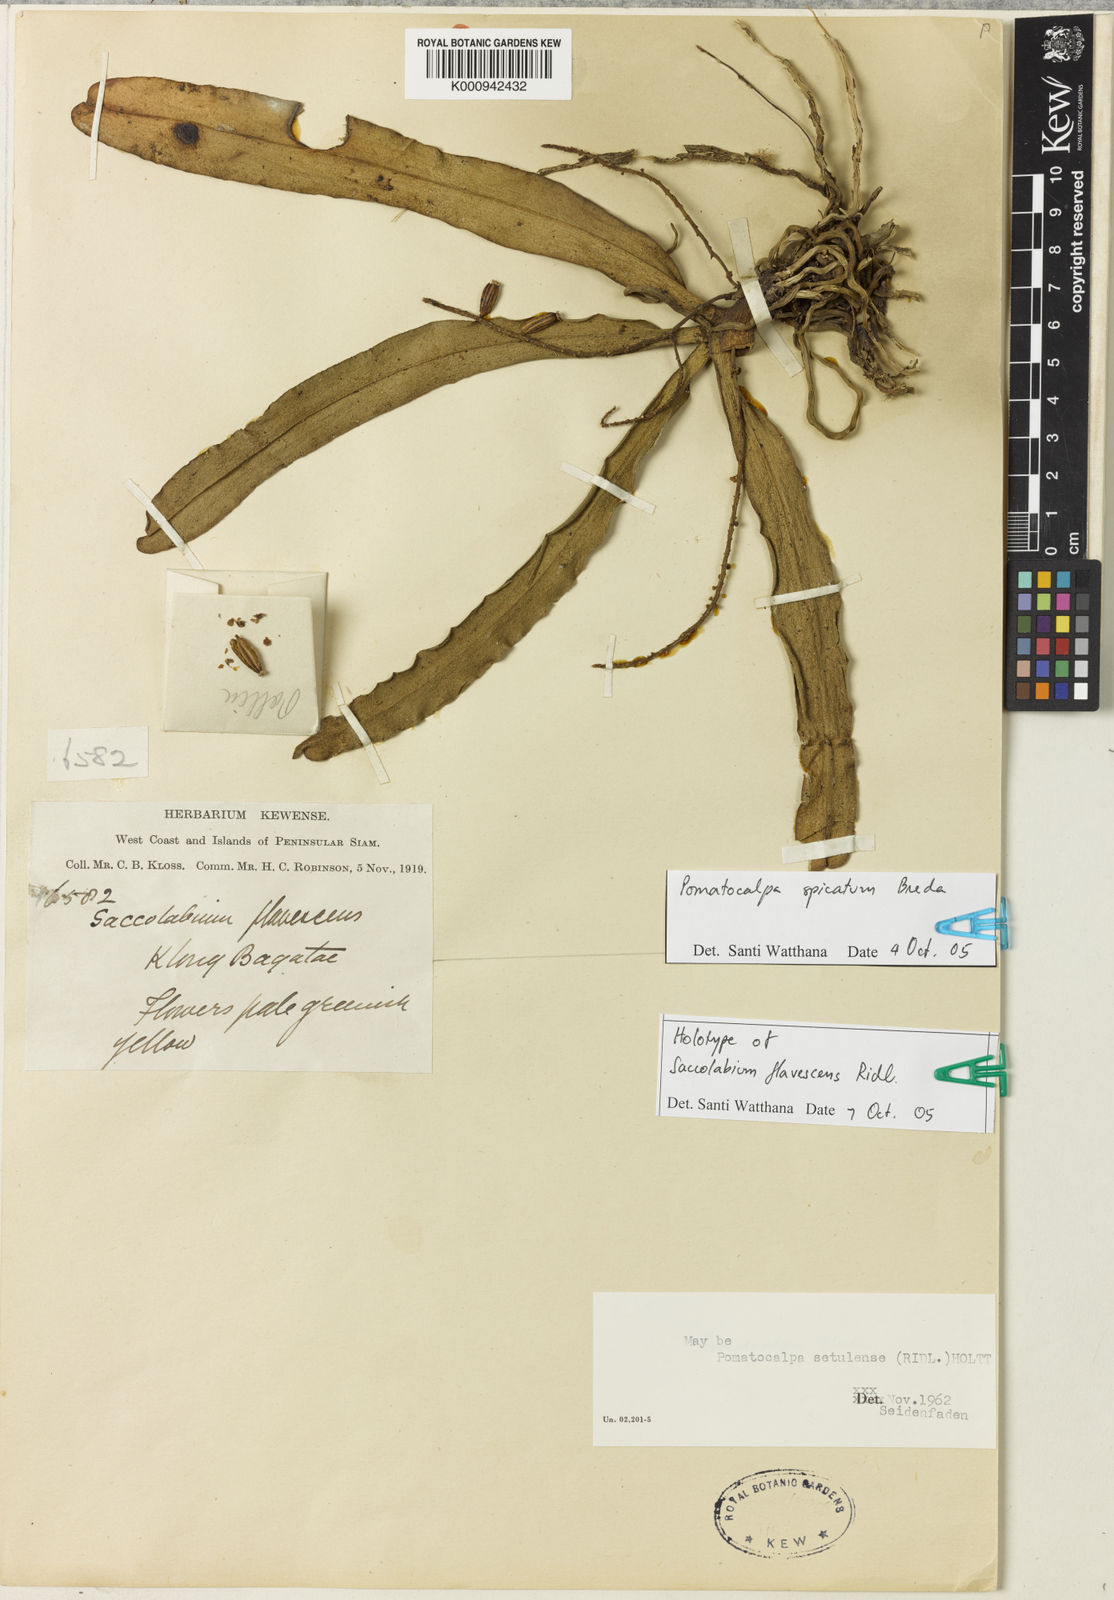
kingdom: Plantae
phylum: Tracheophyta
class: Liliopsida
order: Asparagales
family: Orchidaceae
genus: Pomatocalpa
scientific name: Pomatocalpa spicatum
